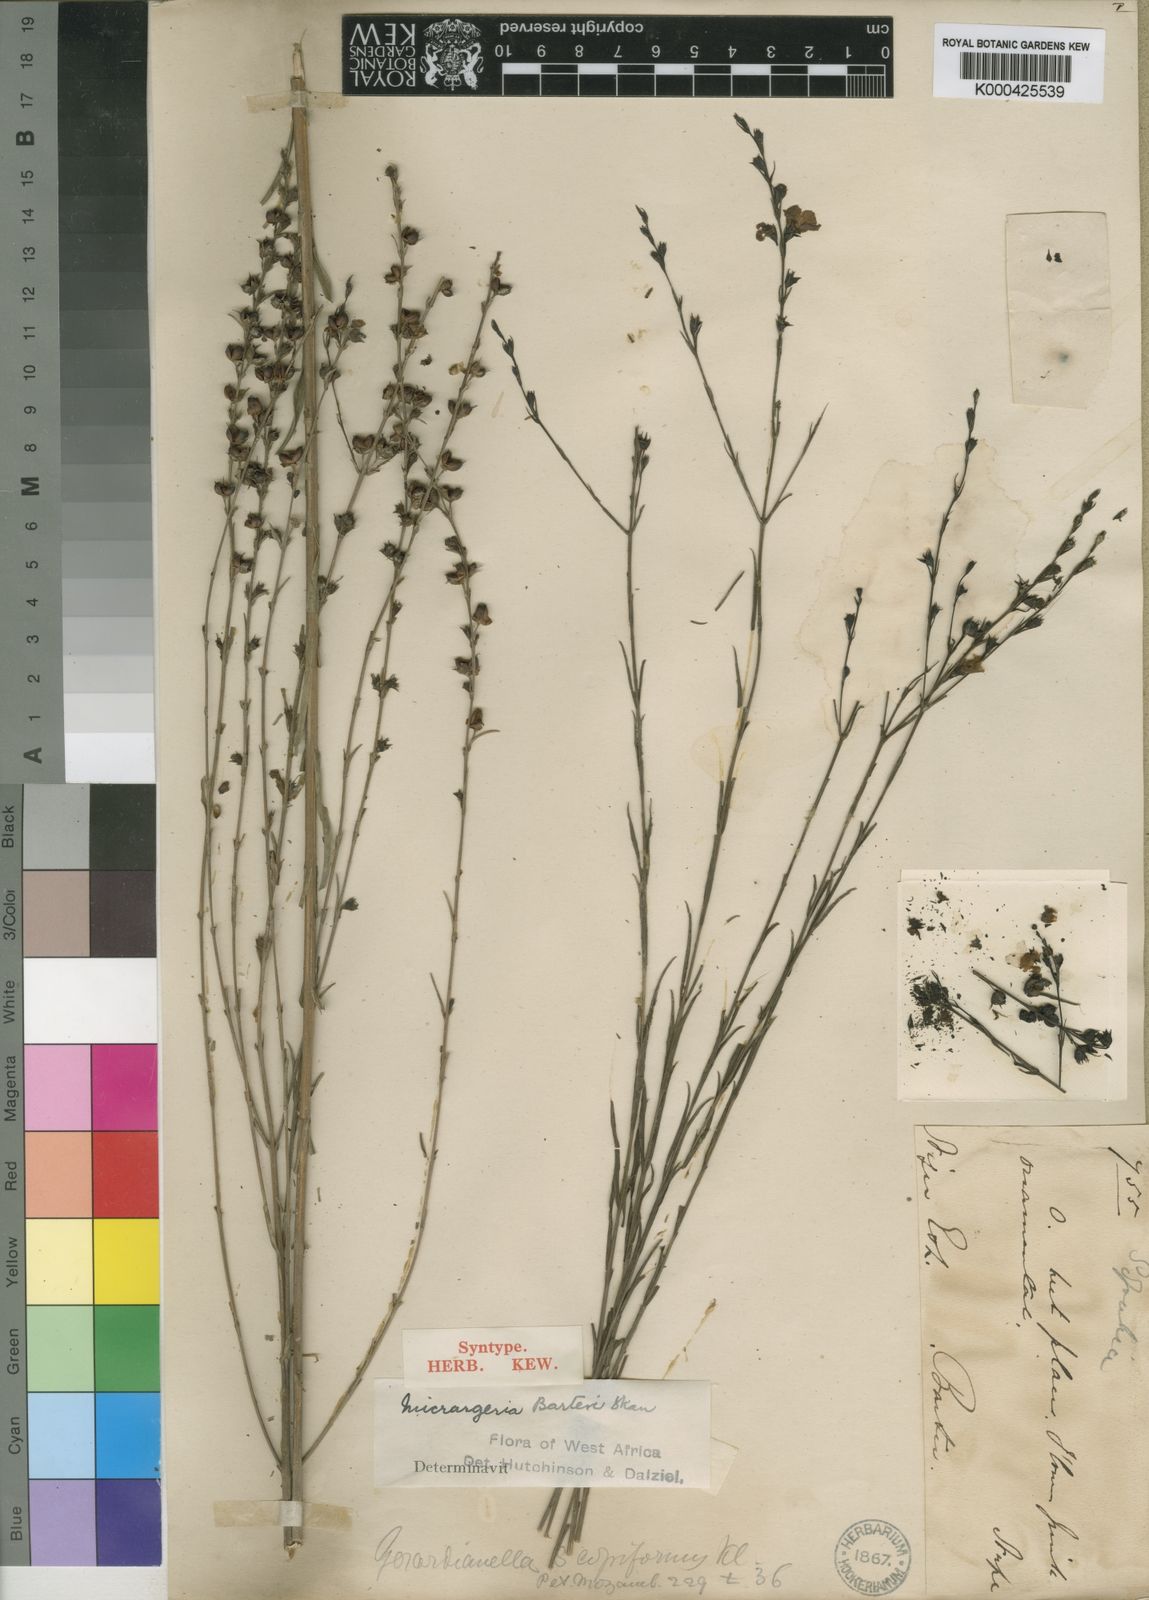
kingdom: Plantae
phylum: Tracheophyta
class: Magnoliopsida
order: Lamiales
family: Orobanchaceae
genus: Micrargeria
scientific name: Micrargeria filiformis
